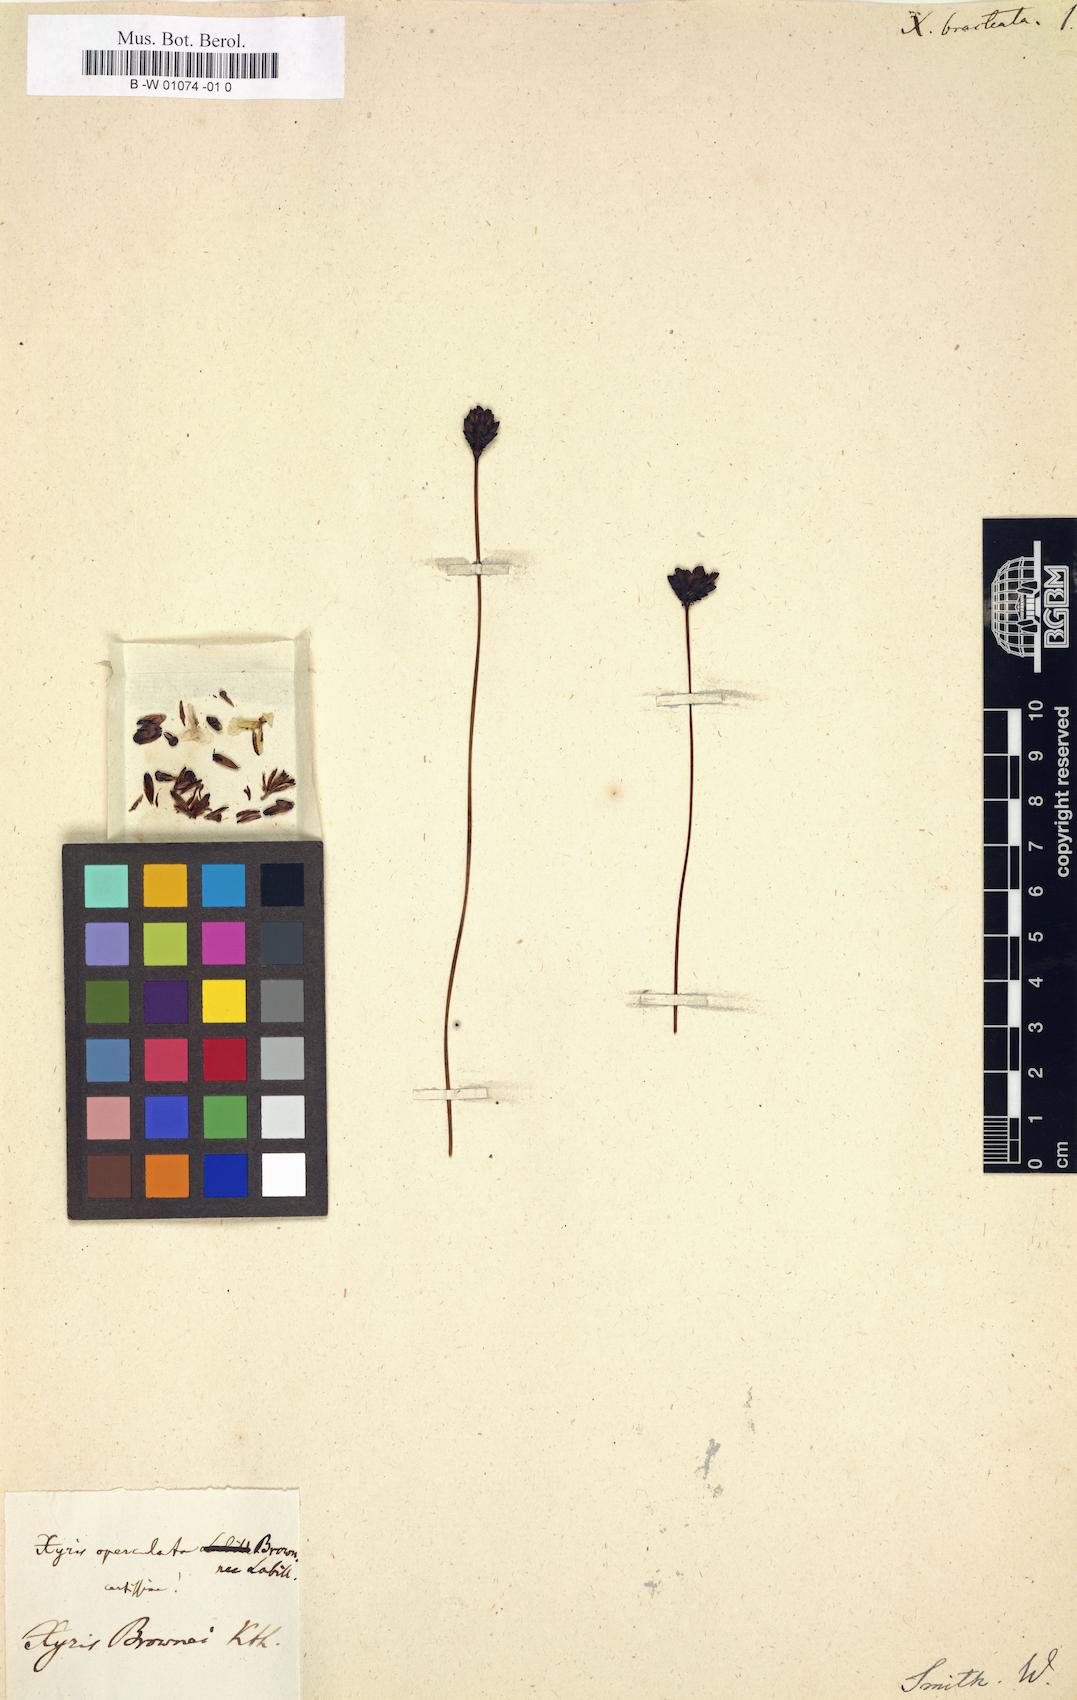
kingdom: Plantae
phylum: Tracheophyta
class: Liliopsida
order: Poales
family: Xyridaceae
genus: Xyris
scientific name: Xyris bracteata
